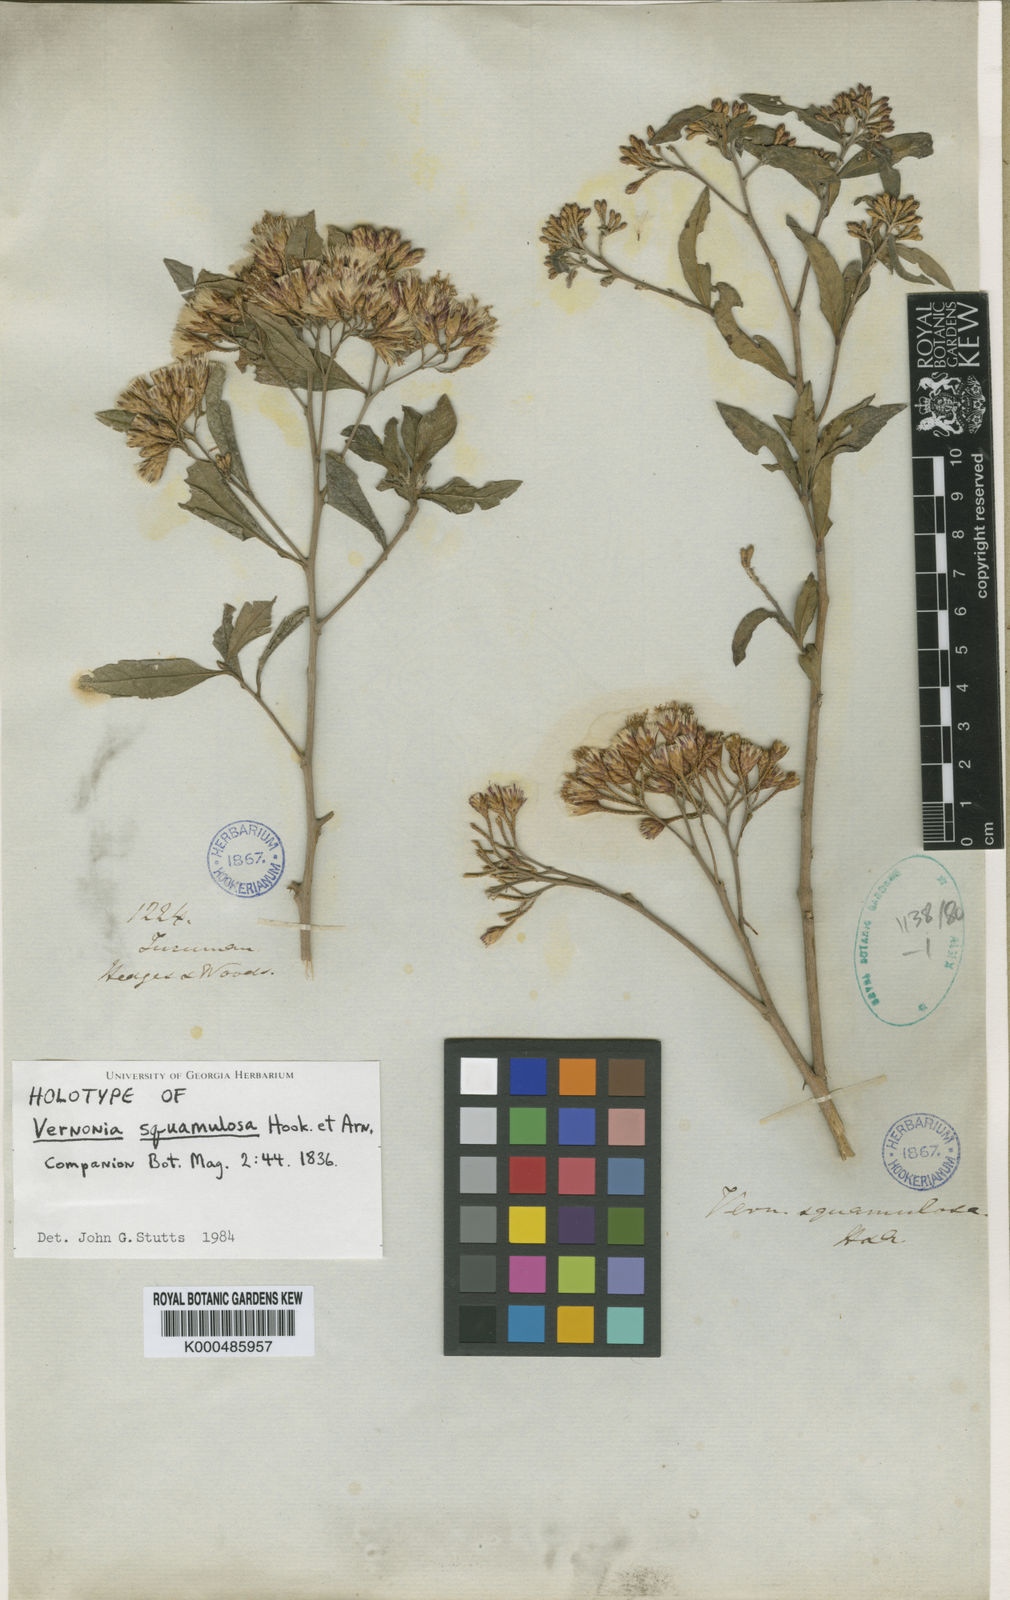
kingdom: Plantae
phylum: Tracheophyta
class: Magnoliopsida
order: Asterales
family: Asteraceae
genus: Vernonanthura
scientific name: Vernonanthura squamulosa
